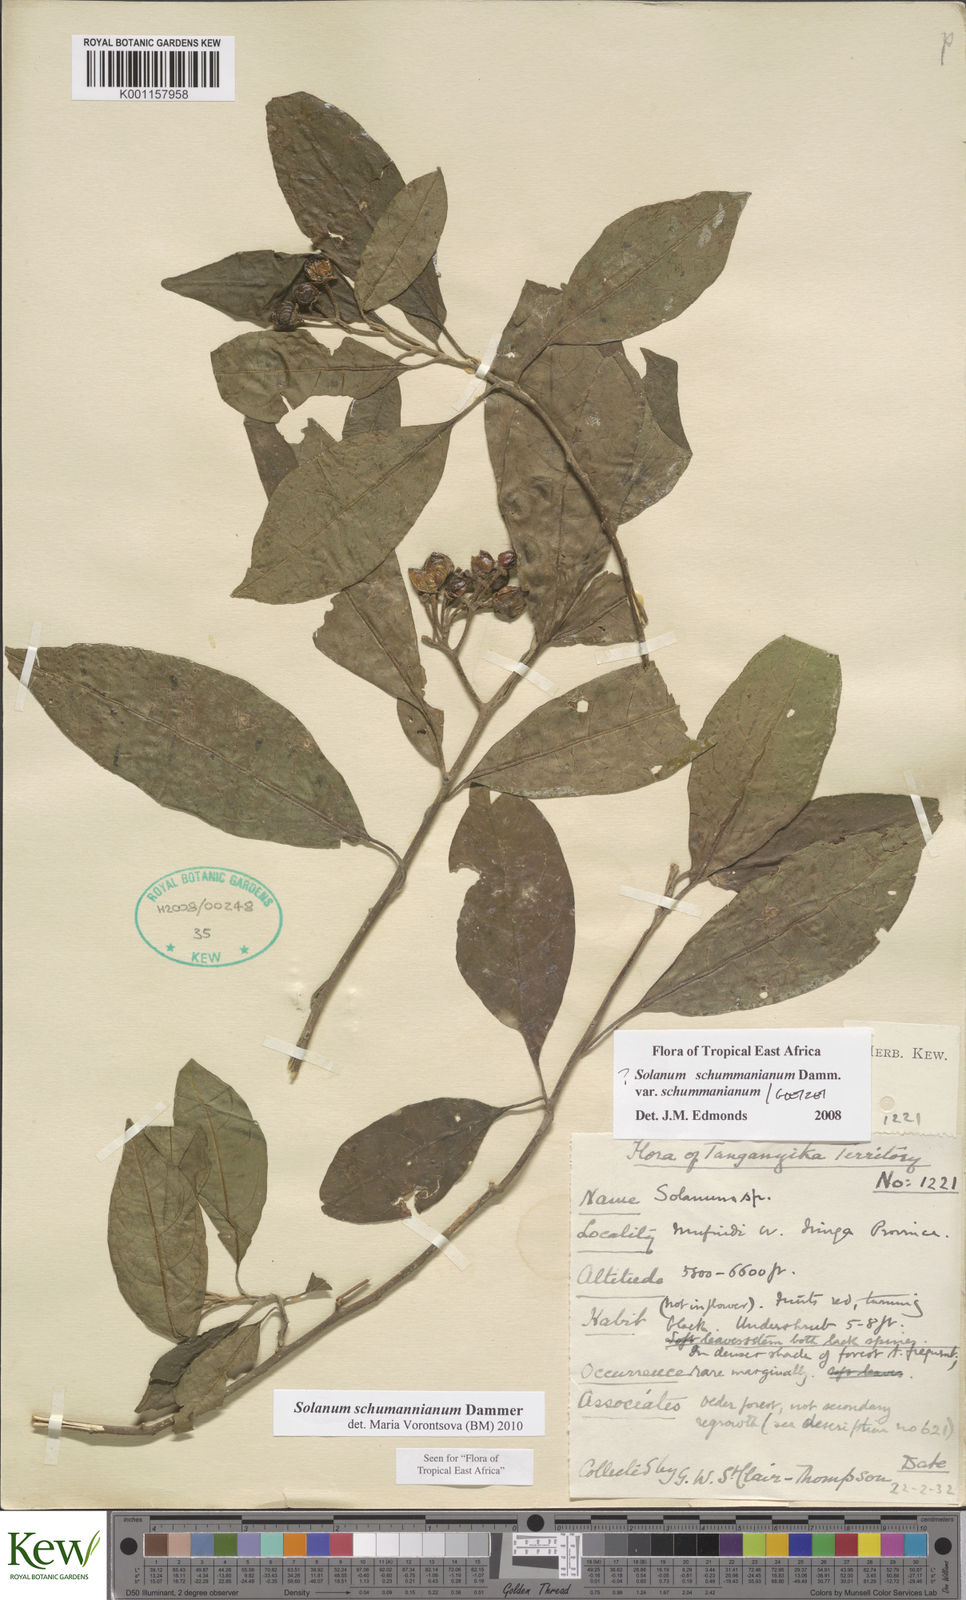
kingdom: Plantae
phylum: Tracheophyta
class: Magnoliopsida
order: Solanales
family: Solanaceae
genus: Solanum
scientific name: Solanum schumannianum
